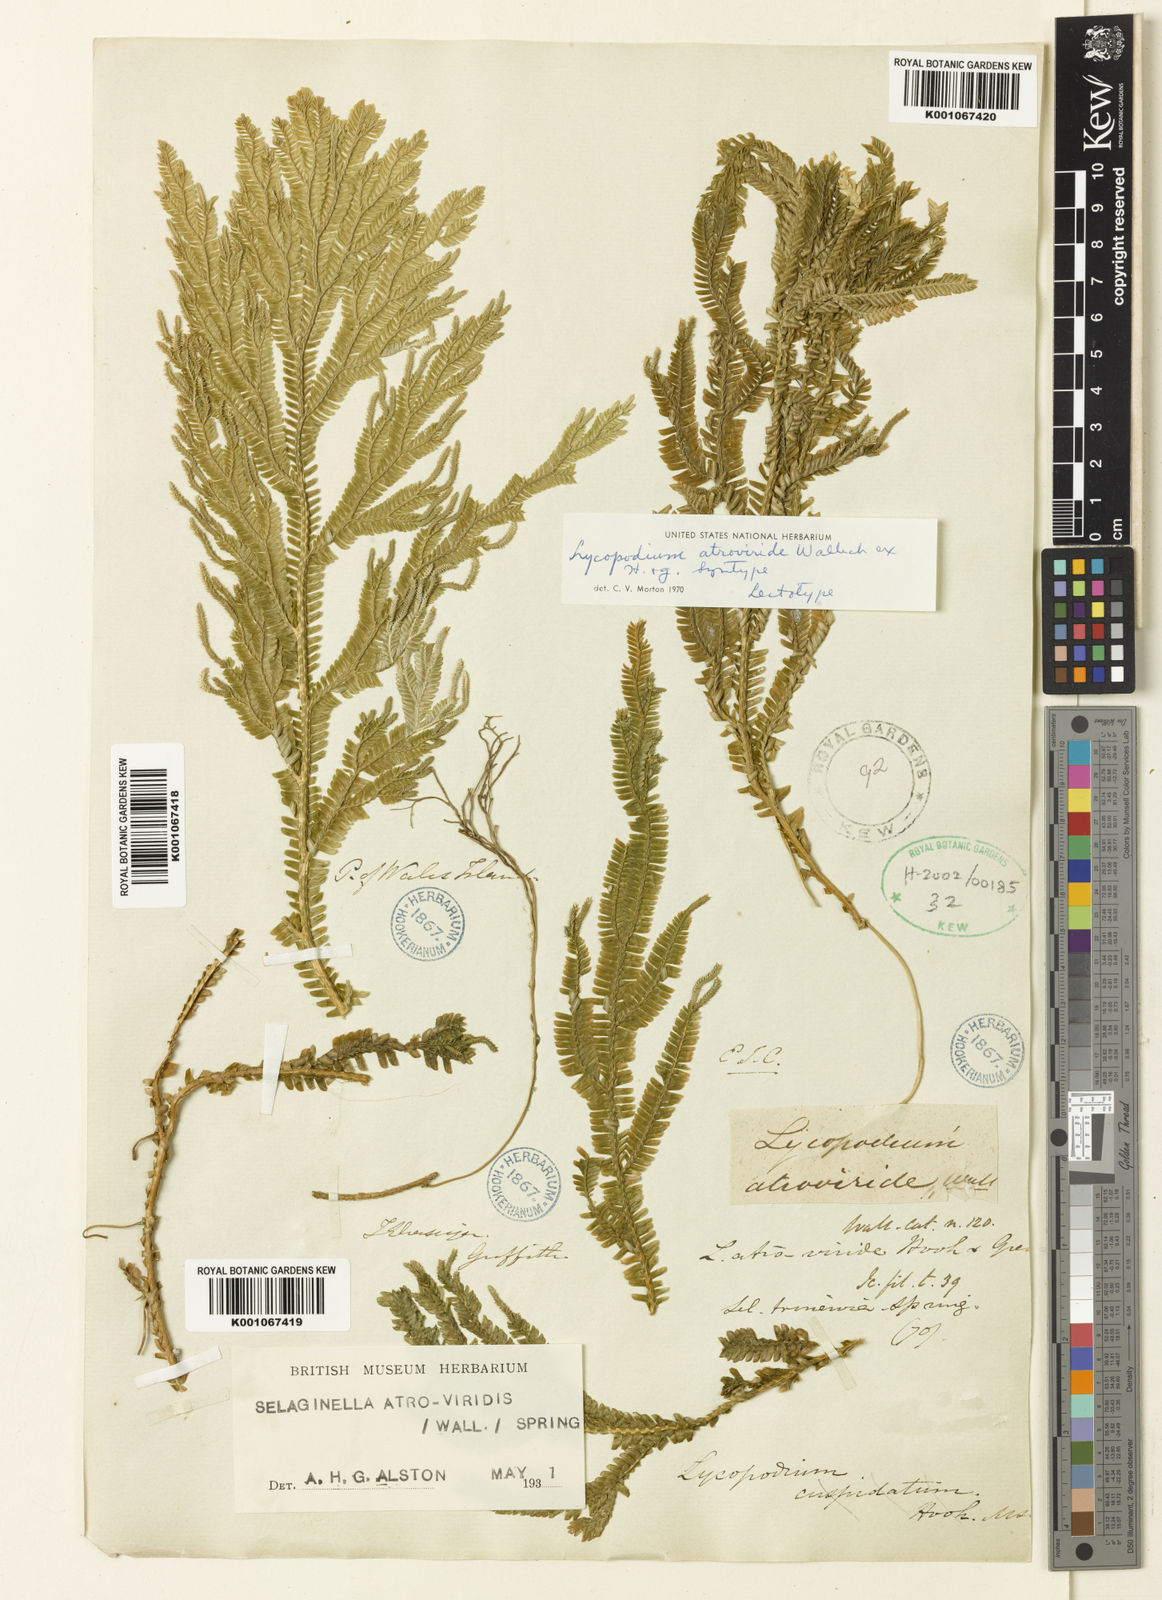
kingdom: Plantae
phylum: Tracheophyta
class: Lycopodiopsida
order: Selaginellales
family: Selaginellaceae
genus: Selaginella
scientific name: Selaginella intermedia
